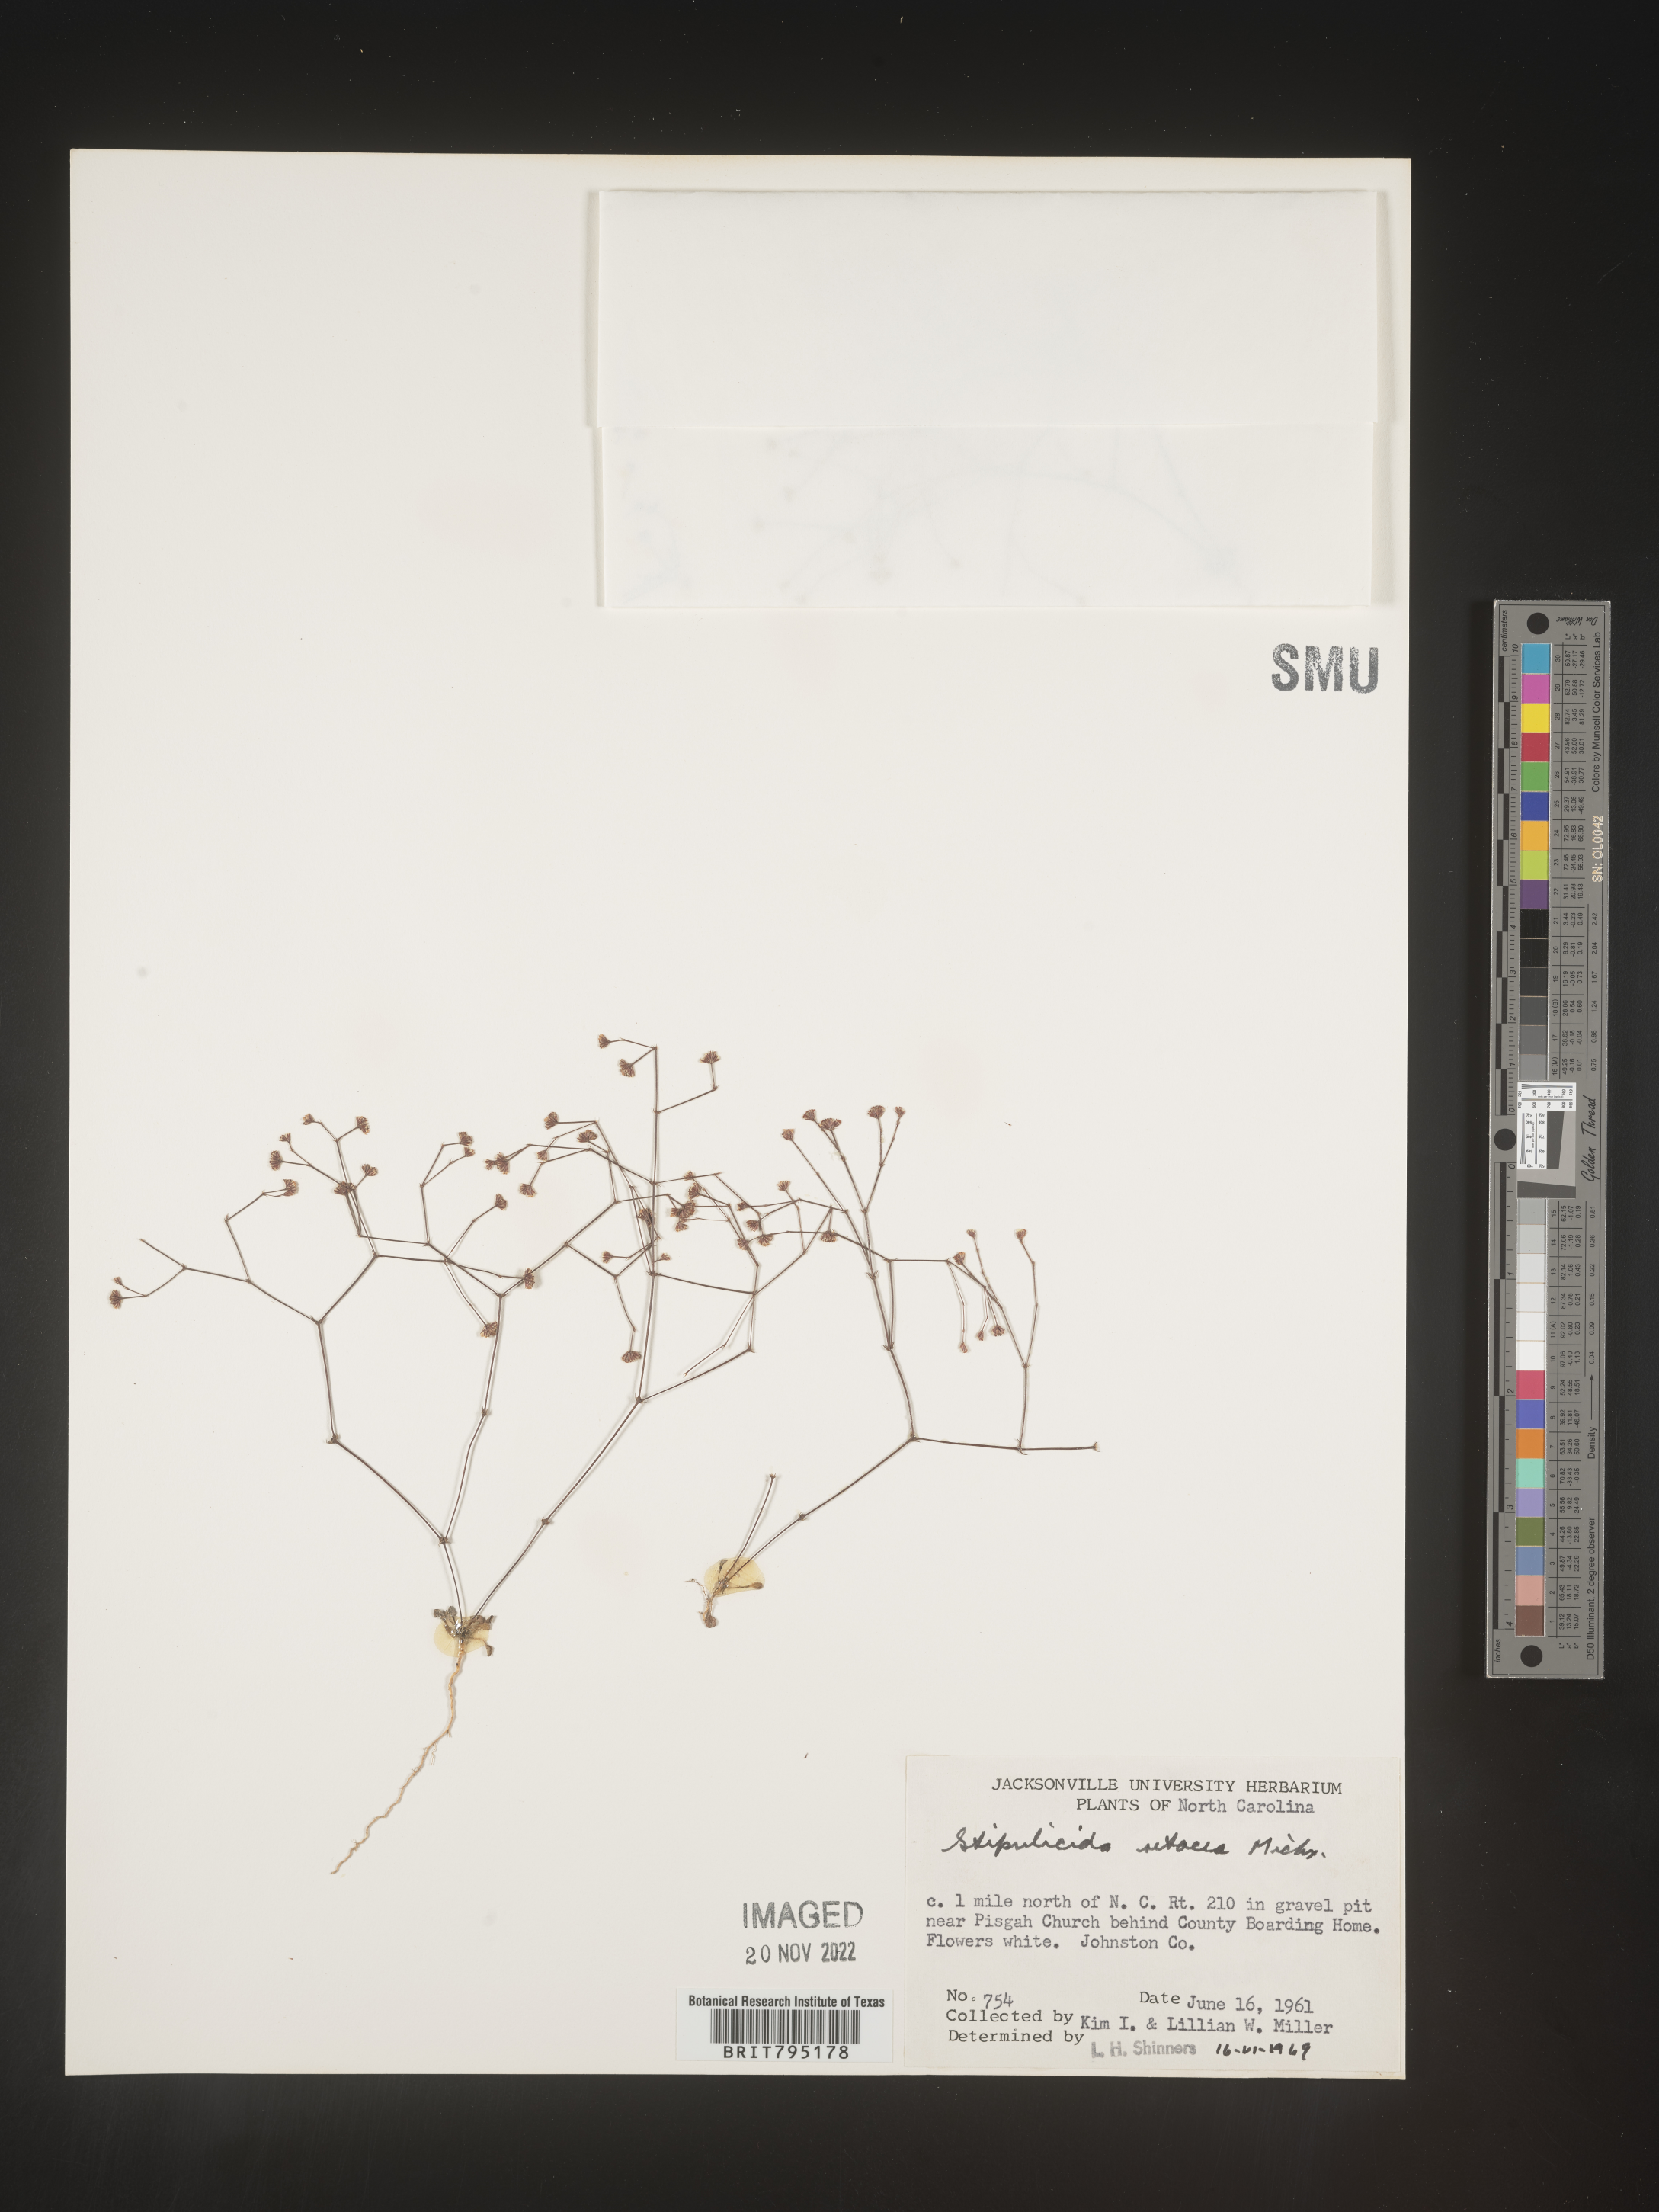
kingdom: Plantae
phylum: Tracheophyta
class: Magnoliopsida
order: Caryophyllales
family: Caryophyllaceae
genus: Stipulicida
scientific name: Stipulicida
